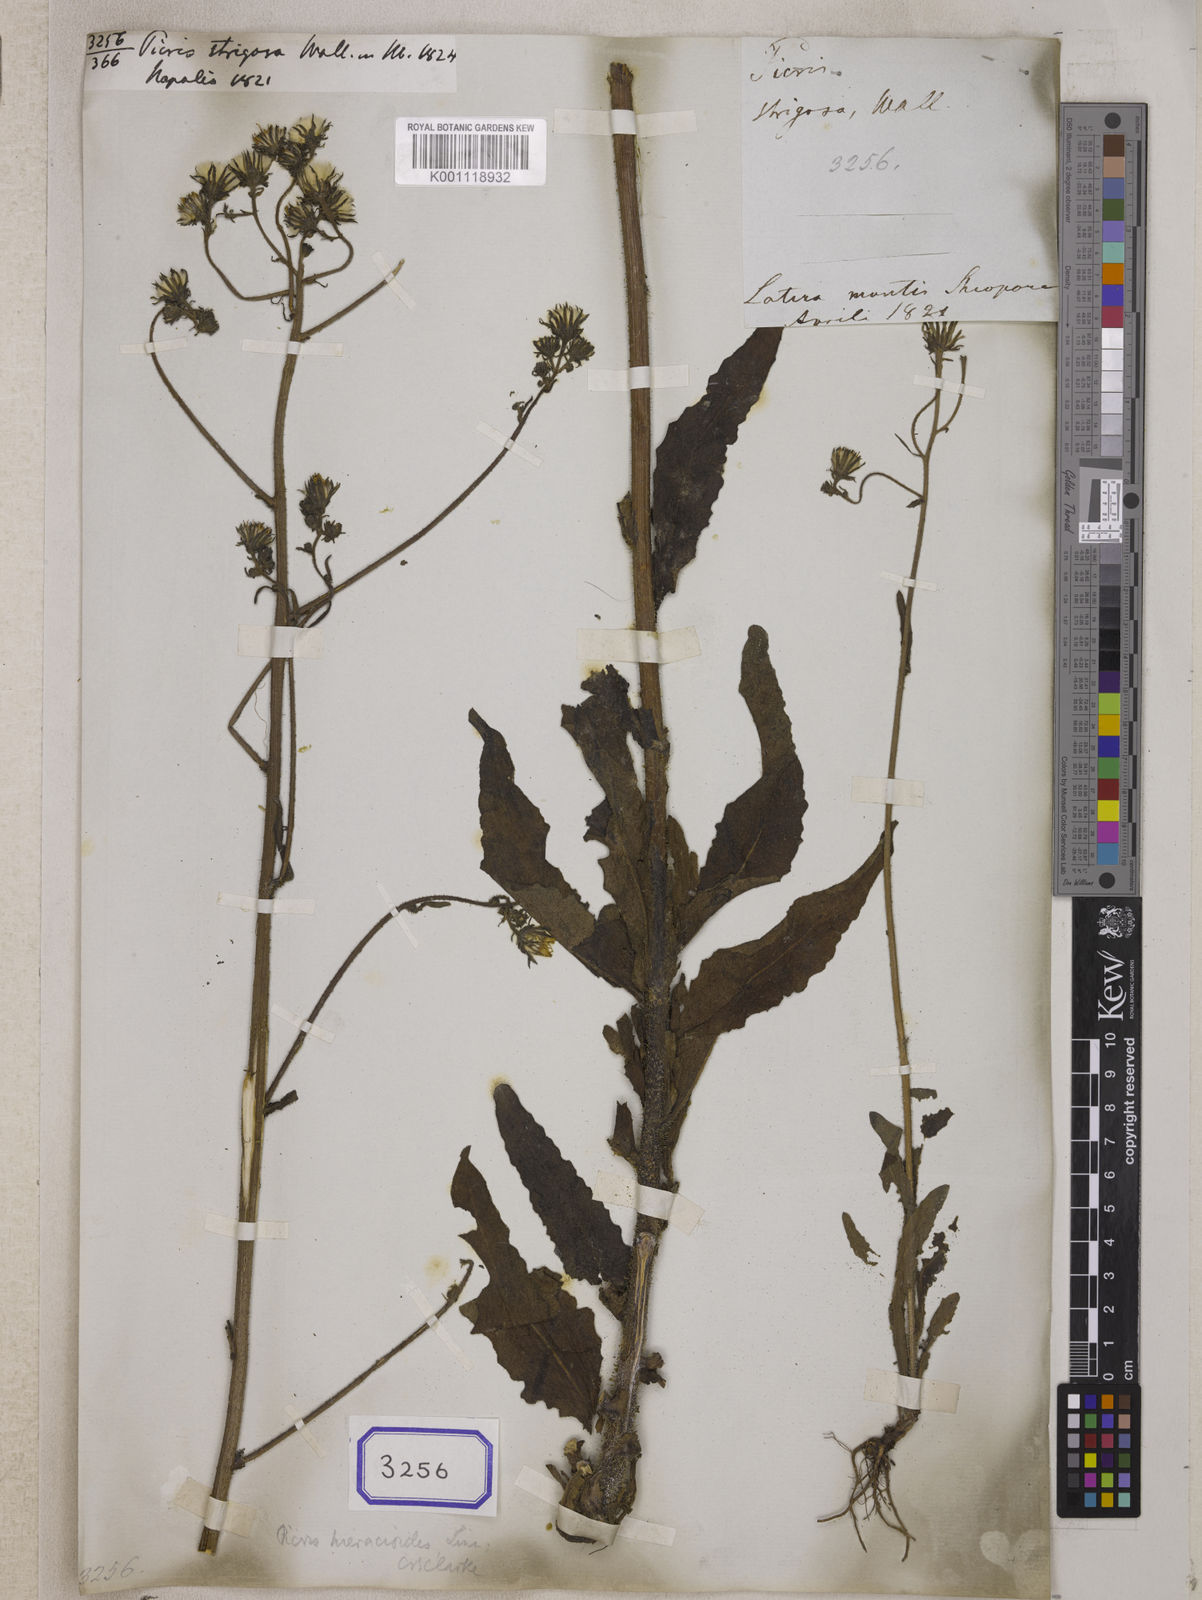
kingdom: Plantae
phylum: Tracheophyta
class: Magnoliopsida
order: Asterales
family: Asteraceae
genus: Picris
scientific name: Picris hieracioides
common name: Hawkweed oxtongue
